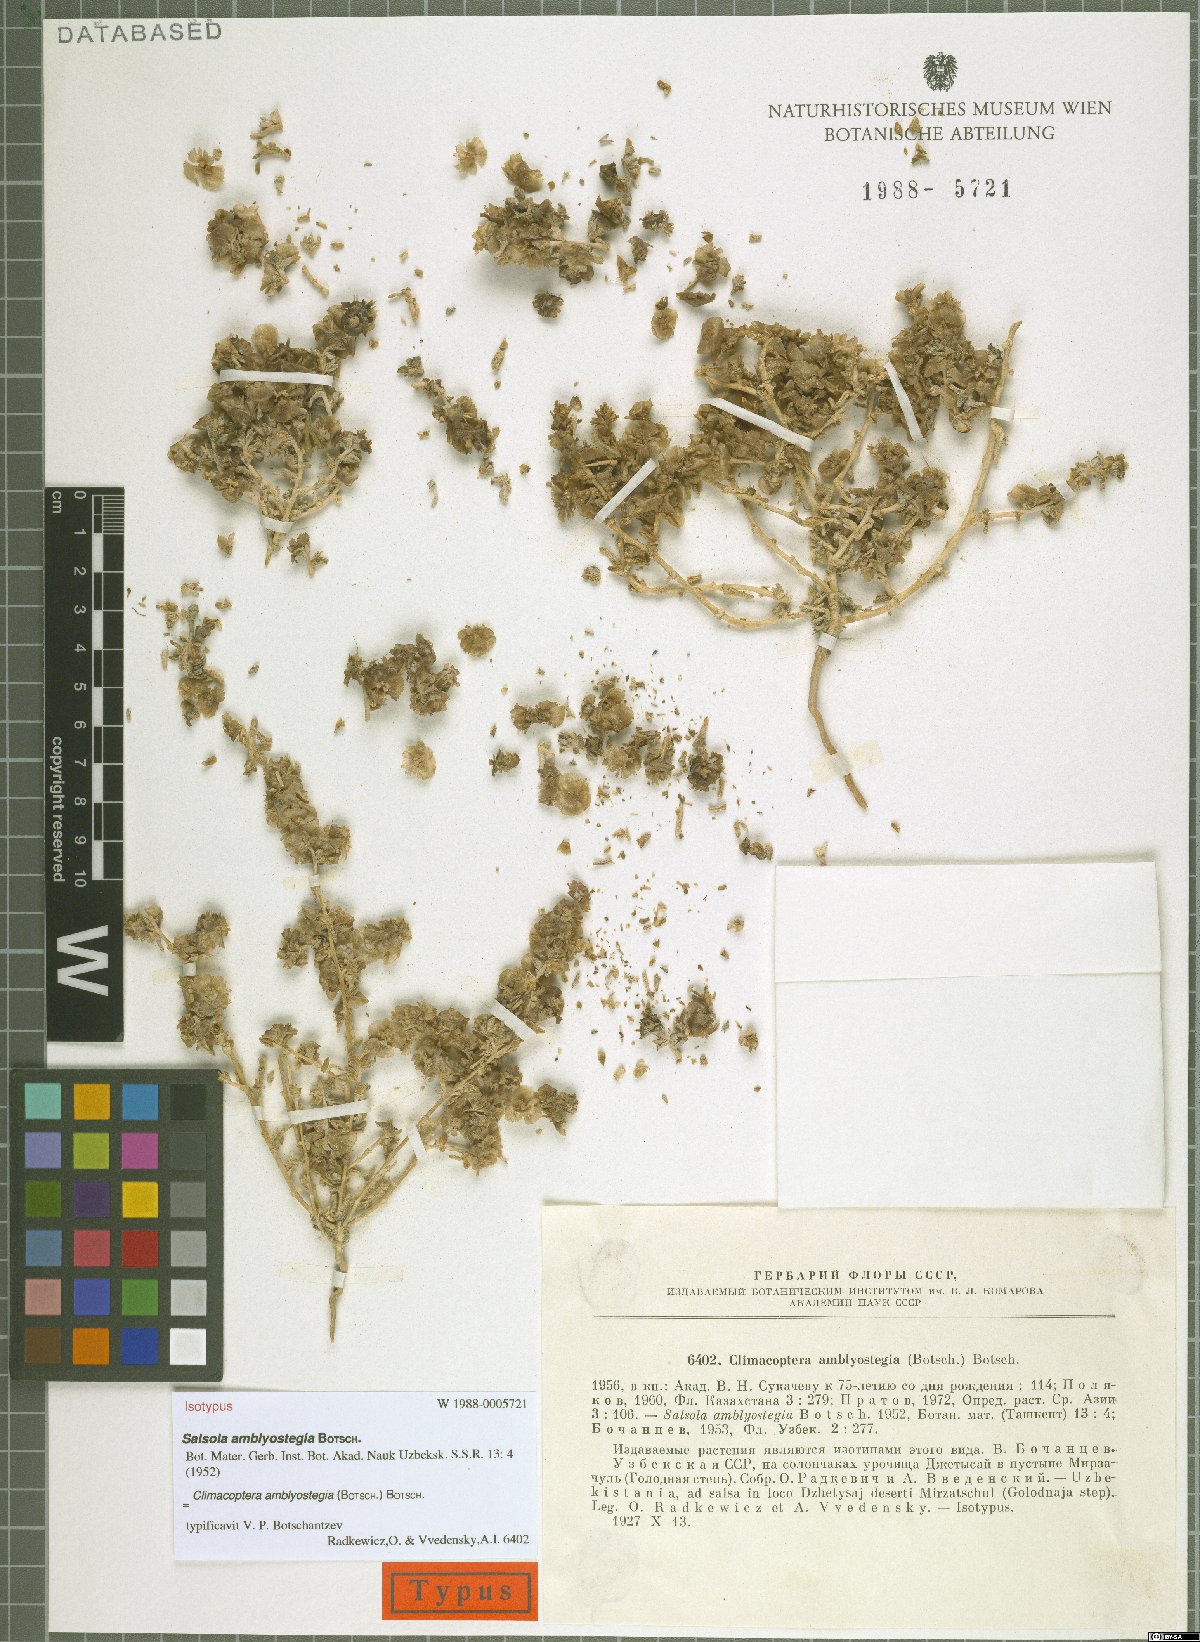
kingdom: Plantae
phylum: Tracheophyta
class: Magnoliopsida
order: Caryophyllales
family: Amaranthaceae
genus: Climacoptera
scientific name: Climacoptera amblyostegia
